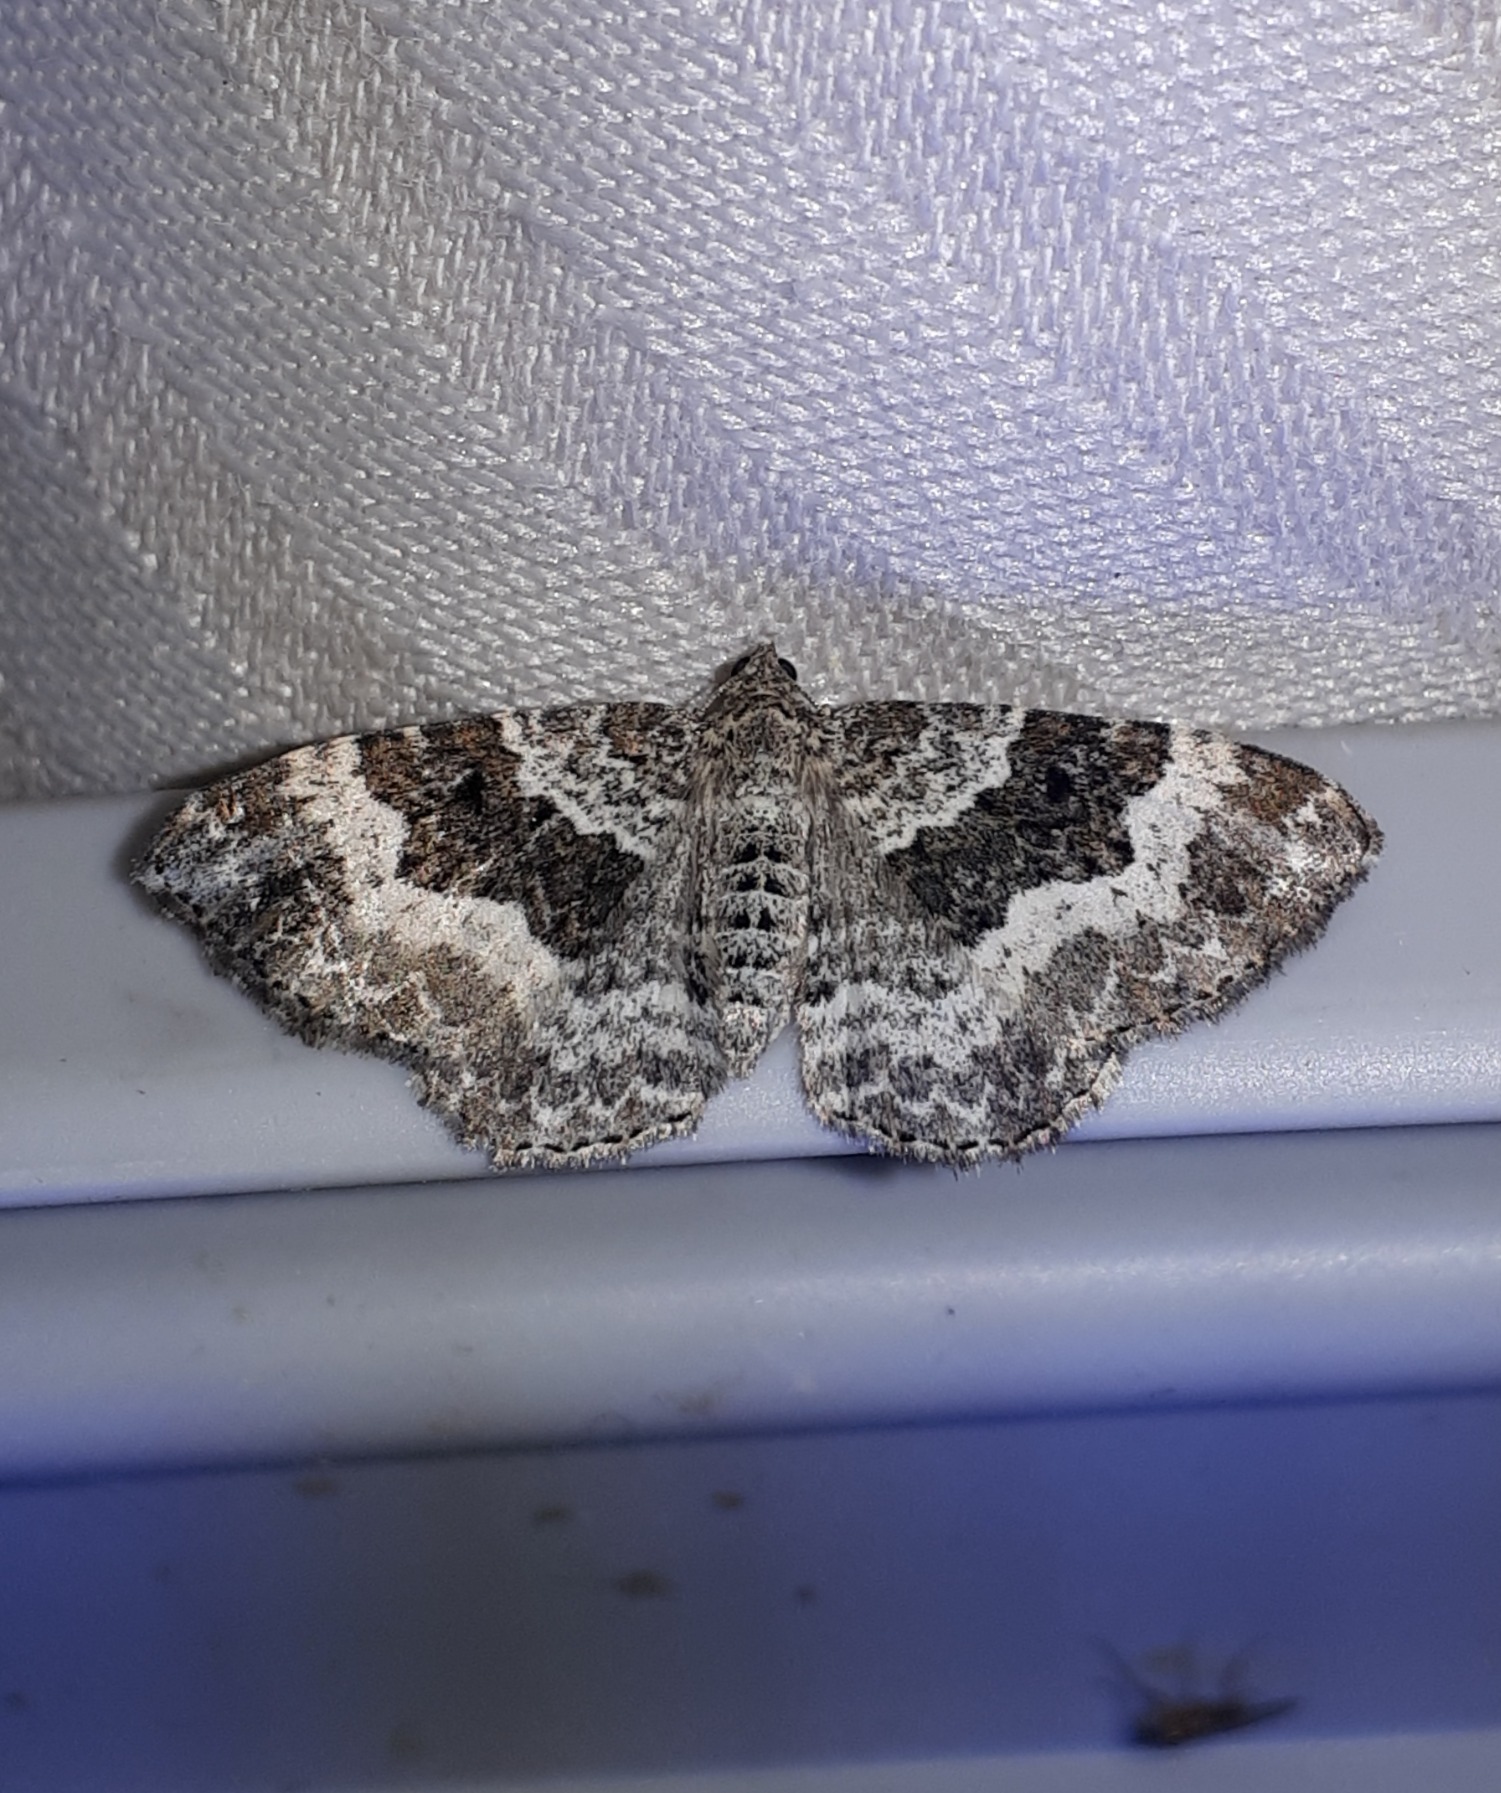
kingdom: Animalia
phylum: Arthropoda
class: Insecta
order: Lepidoptera
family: Geometridae
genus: Epirrhoe
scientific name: Epirrhoe alternata
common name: Almindelig bladmåler
